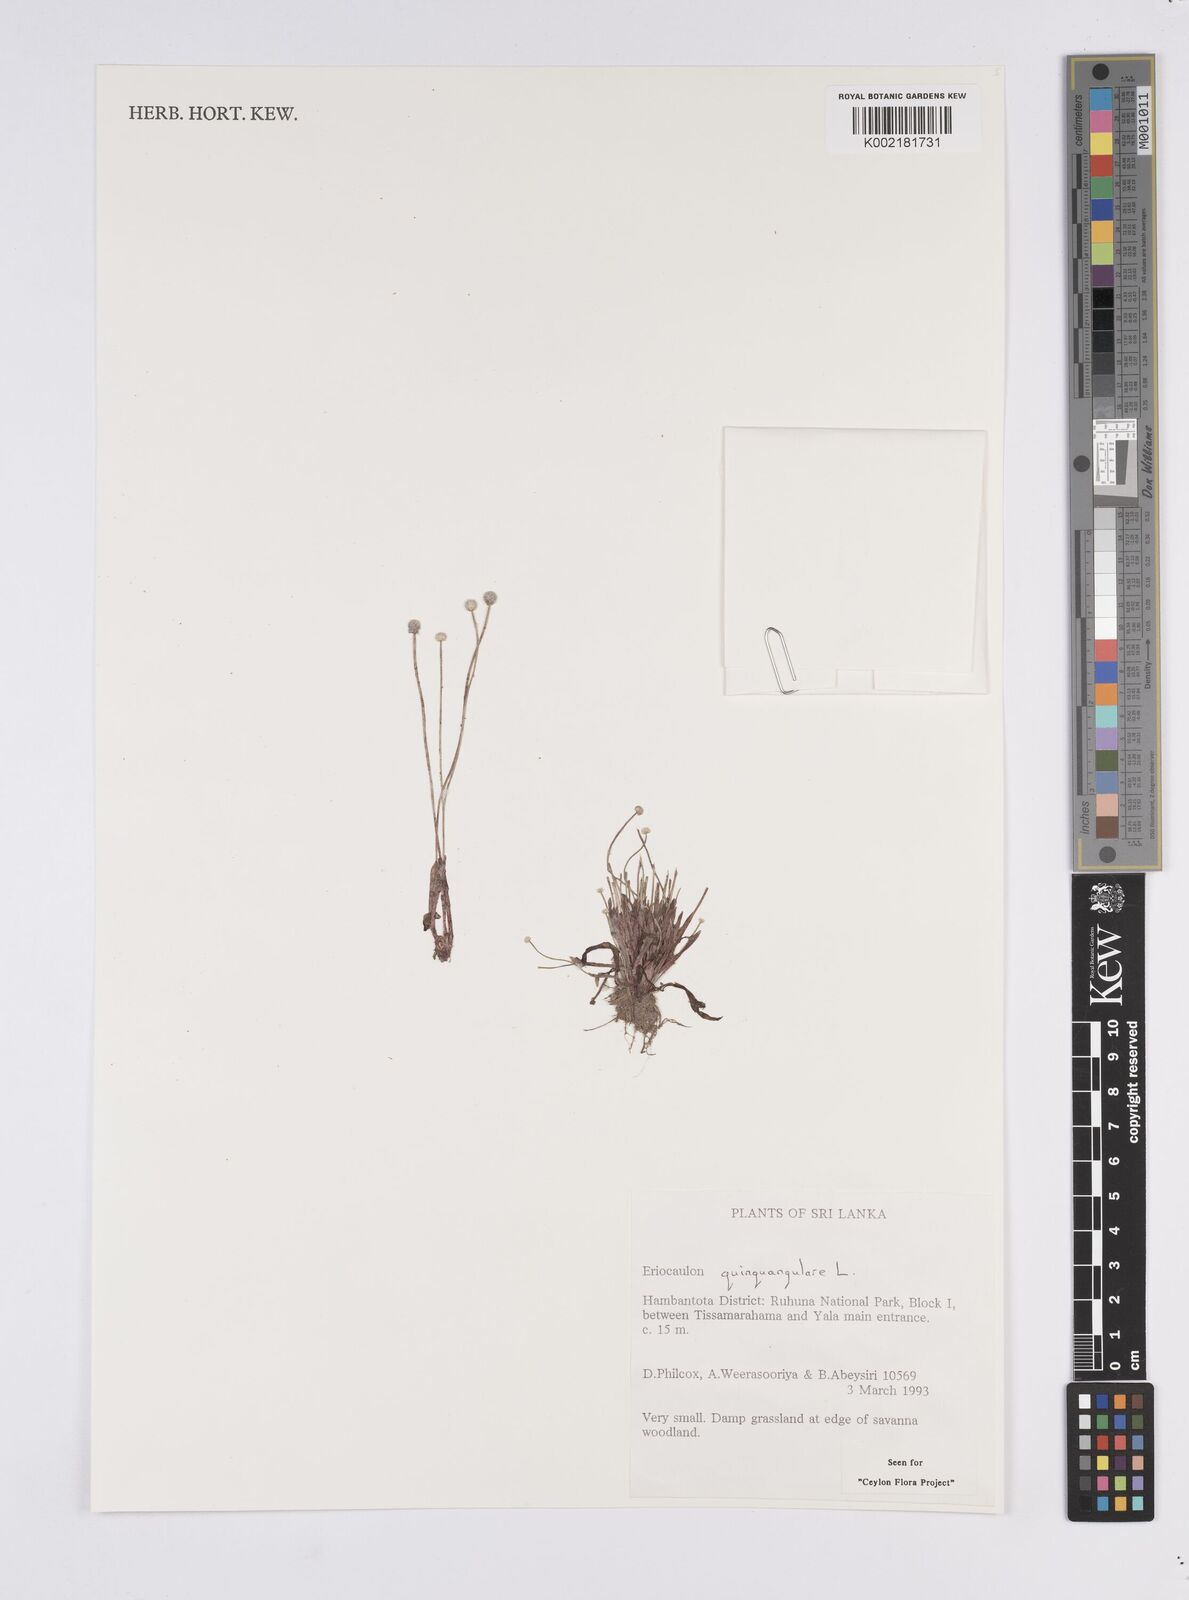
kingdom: Plantae
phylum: Tracheophyta
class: Liliopsida
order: Poales
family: Eriocaulaceae
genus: Eriocaulon
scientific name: Eriocaulon quinquangulare
